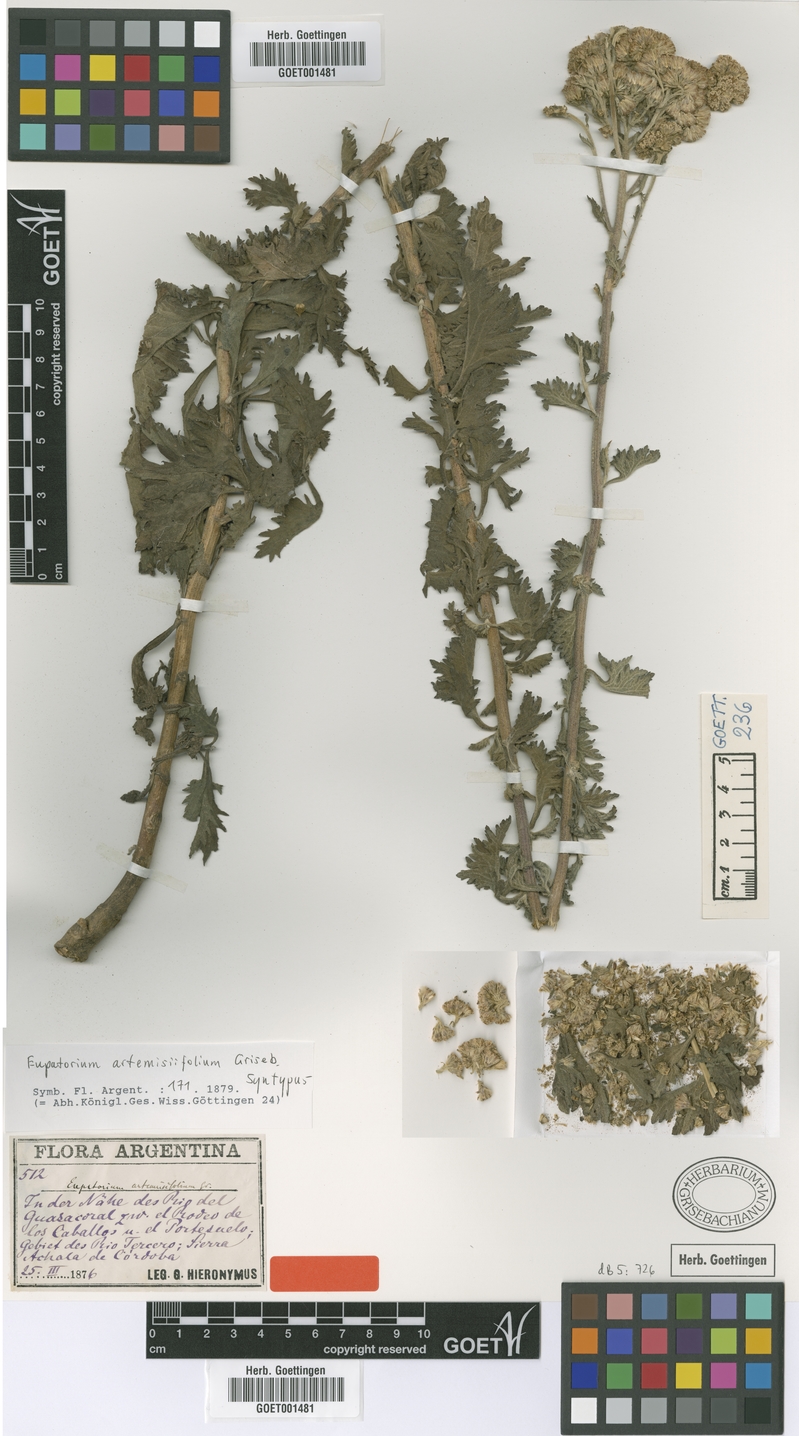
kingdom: Plantae
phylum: Tracheophyta
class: Magnoliopsida
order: Asterales
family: Asteraceae
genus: Gyptis
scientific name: Gyptis artemisifolia
